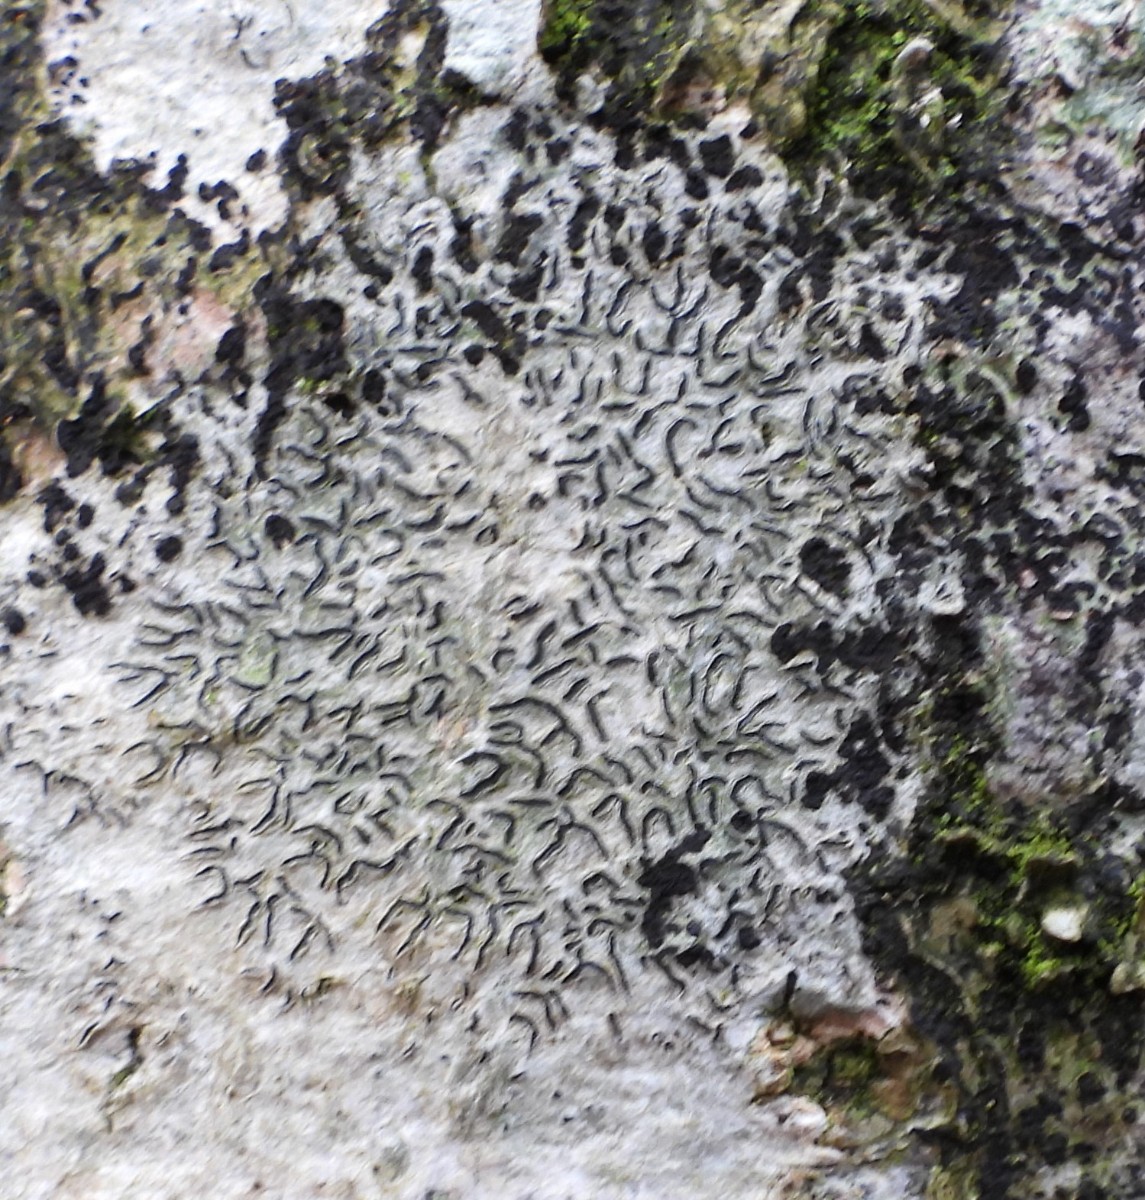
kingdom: Fungi
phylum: Ascomycota
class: Lecanoromycetes
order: Ostropales
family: Graphidaceae
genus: Graphis
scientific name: Graphis scripta
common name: almindelig skriftlav
